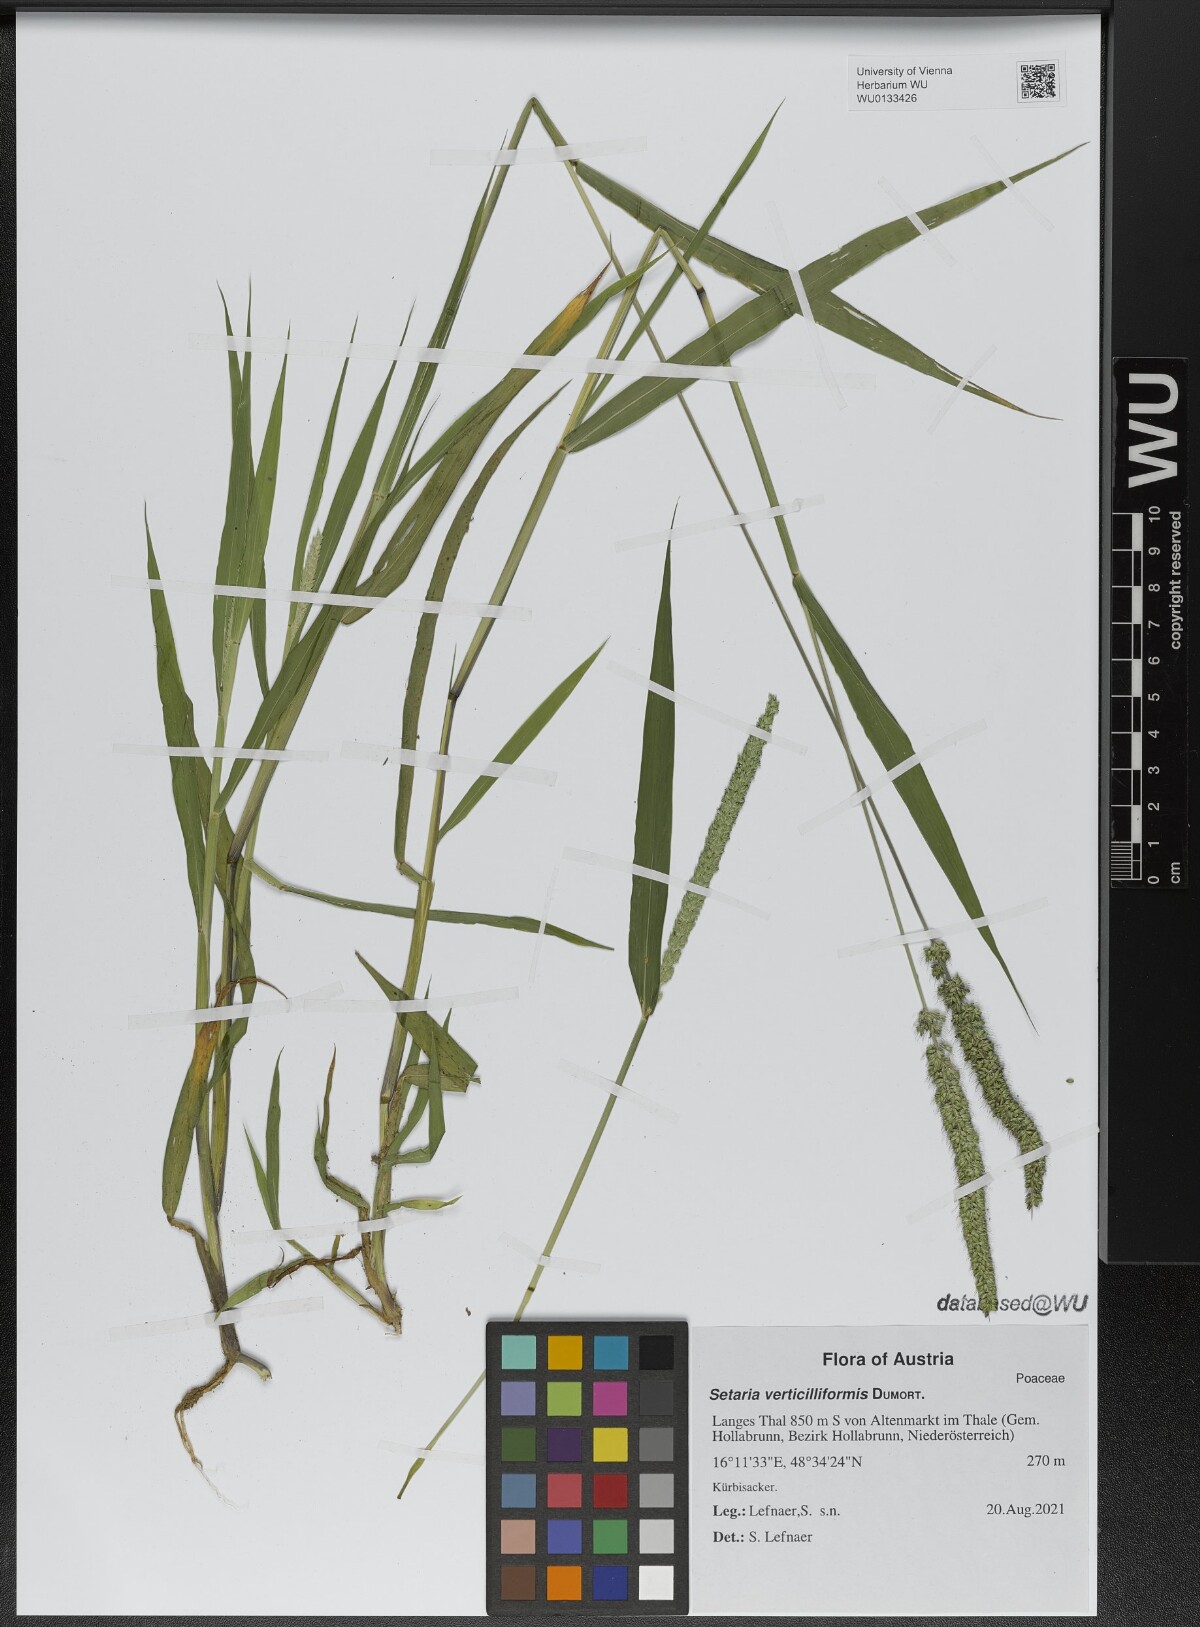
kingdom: Plantae
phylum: Tracheophyta
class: Liliopsida
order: Poales
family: Poaceae
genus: Setaria
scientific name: Setaria verticillata
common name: Hooked bristlegrass
